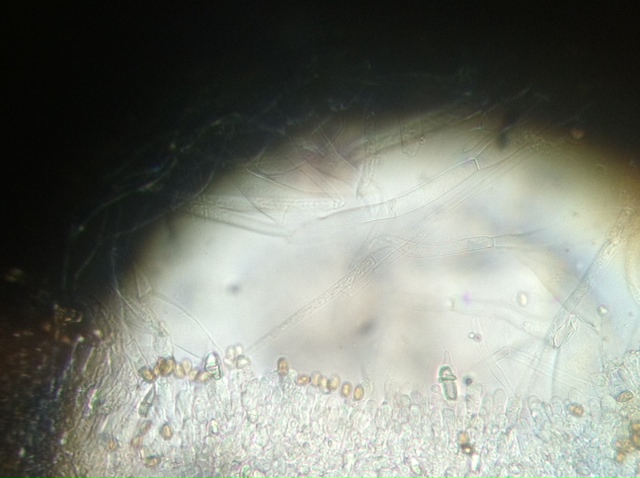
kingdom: Fungi
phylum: Basidiomycota
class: Agaricomycetes
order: Agaricales
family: Strophariaceae
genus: Stropharia
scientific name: Stropharia cyanea
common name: blågrøn bredblad
